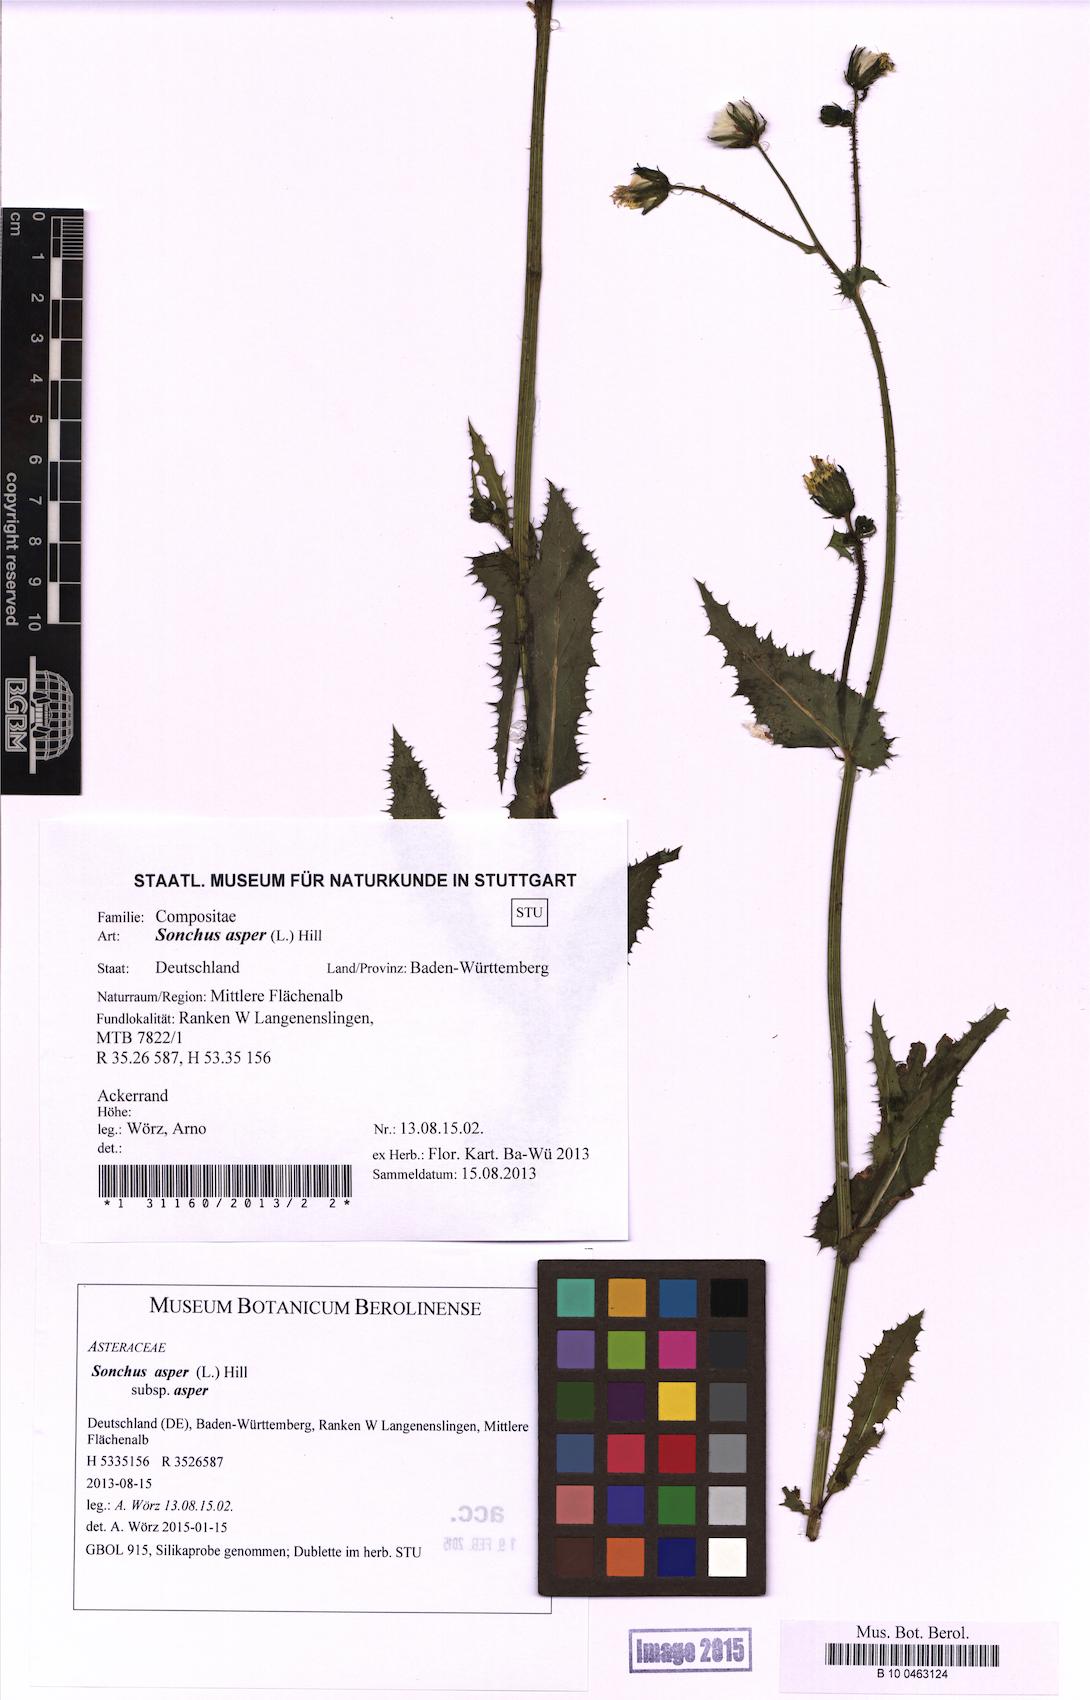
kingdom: Plantae
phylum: Tracheophyta
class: Magnoliopsida
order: Asterales
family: Asteraceae
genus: Sonchus
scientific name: Sonchus asper
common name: Prickly sow-thistle
